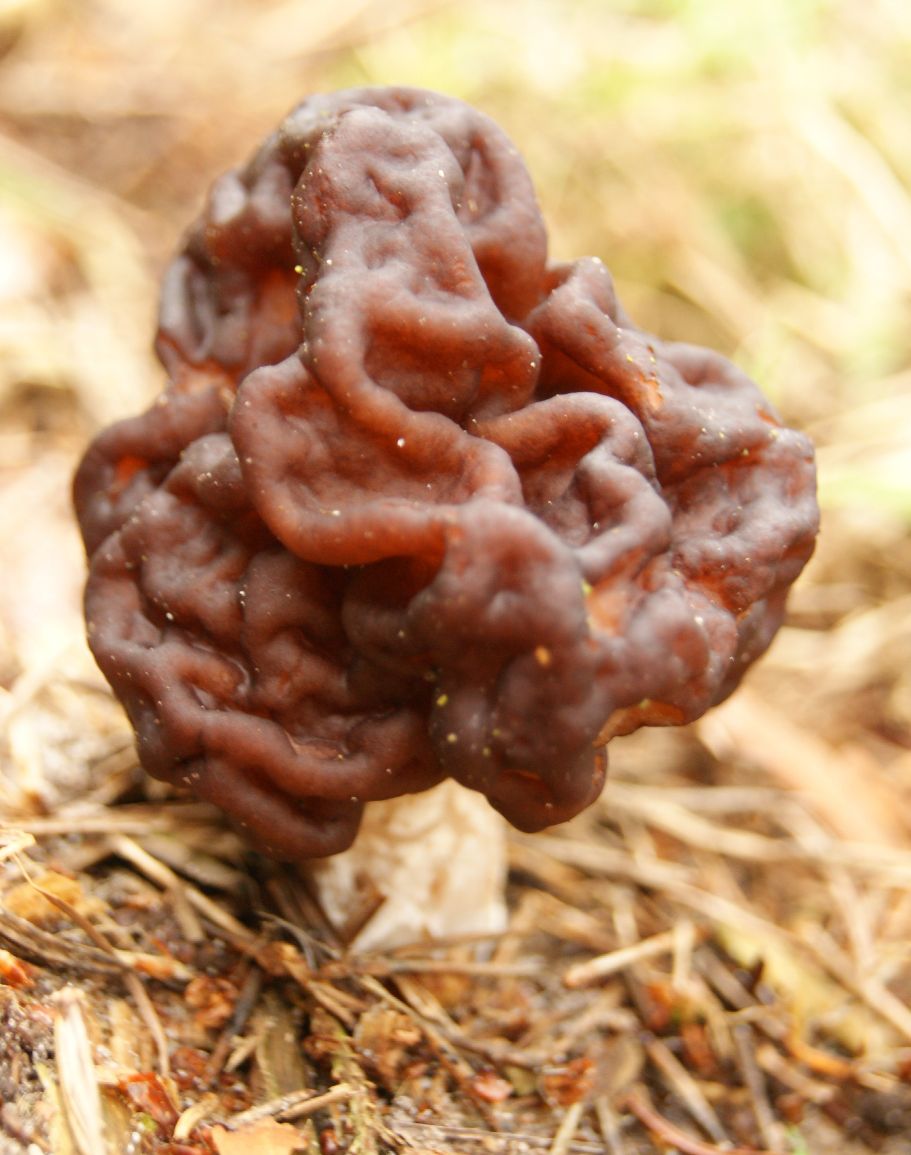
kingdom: Fungi
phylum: Ascomycota
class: Pezizomycetes
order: Pezizales
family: Discinaceae
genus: Gyromitra
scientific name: Gyromitra esculenta
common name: ægte stenmorkel
